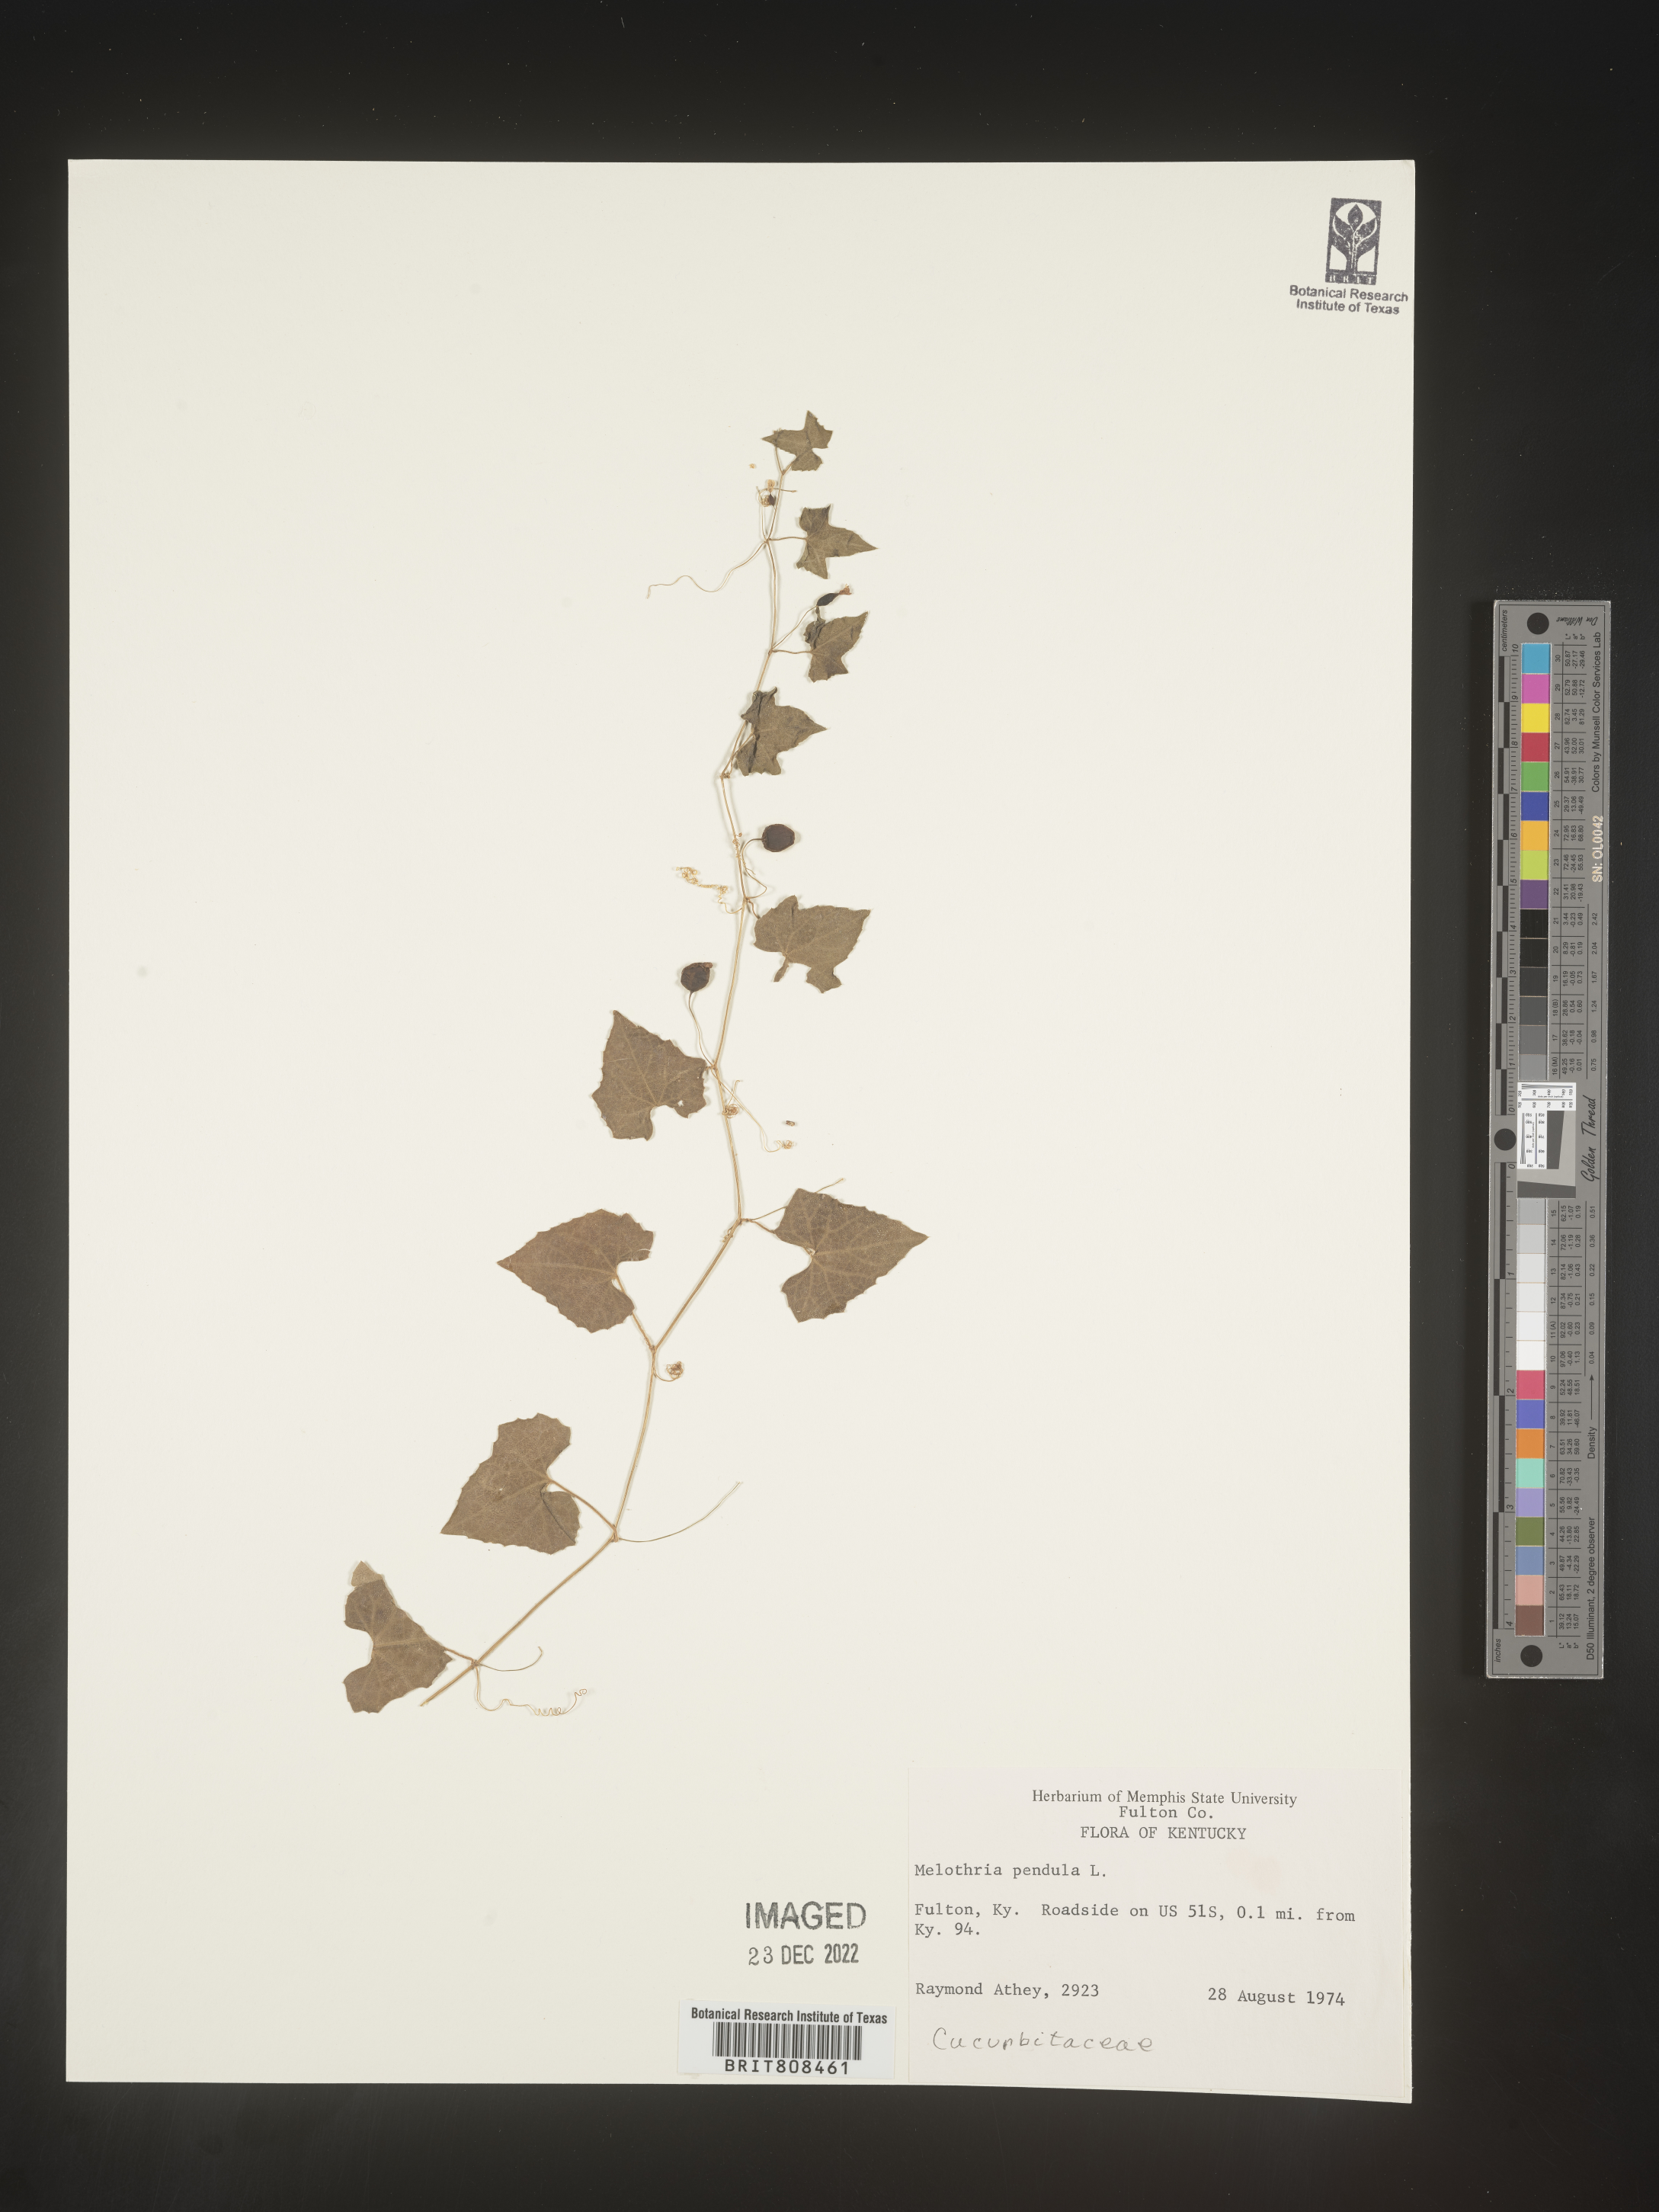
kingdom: Plantae
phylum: Tracheophyta
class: Magnoliopsida
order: Cucurbitales
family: Cucurbitaceae
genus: Melothria
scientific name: Melothria pendula
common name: Creeping-cucumber
